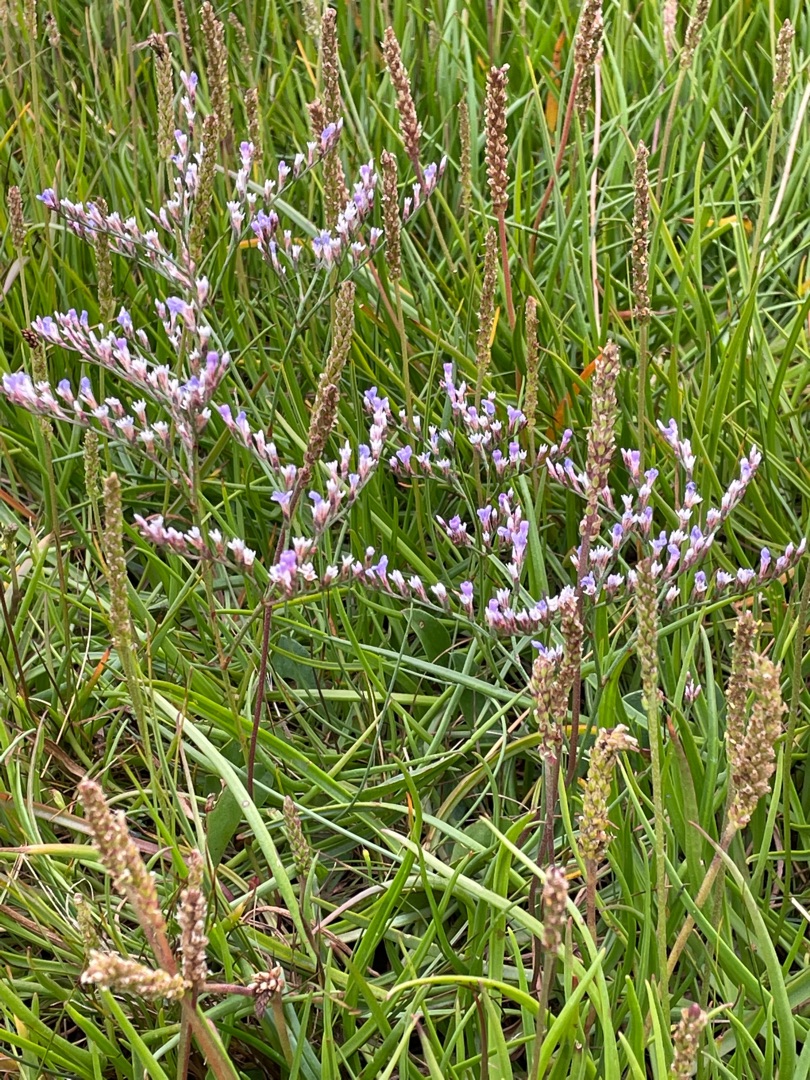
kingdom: Plantae
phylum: Tracheophyta
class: Magnoliopsida
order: Caryophyllales
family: Plumbaginaceae
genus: Limonium
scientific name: Limonium humile
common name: Lav hindebæger
